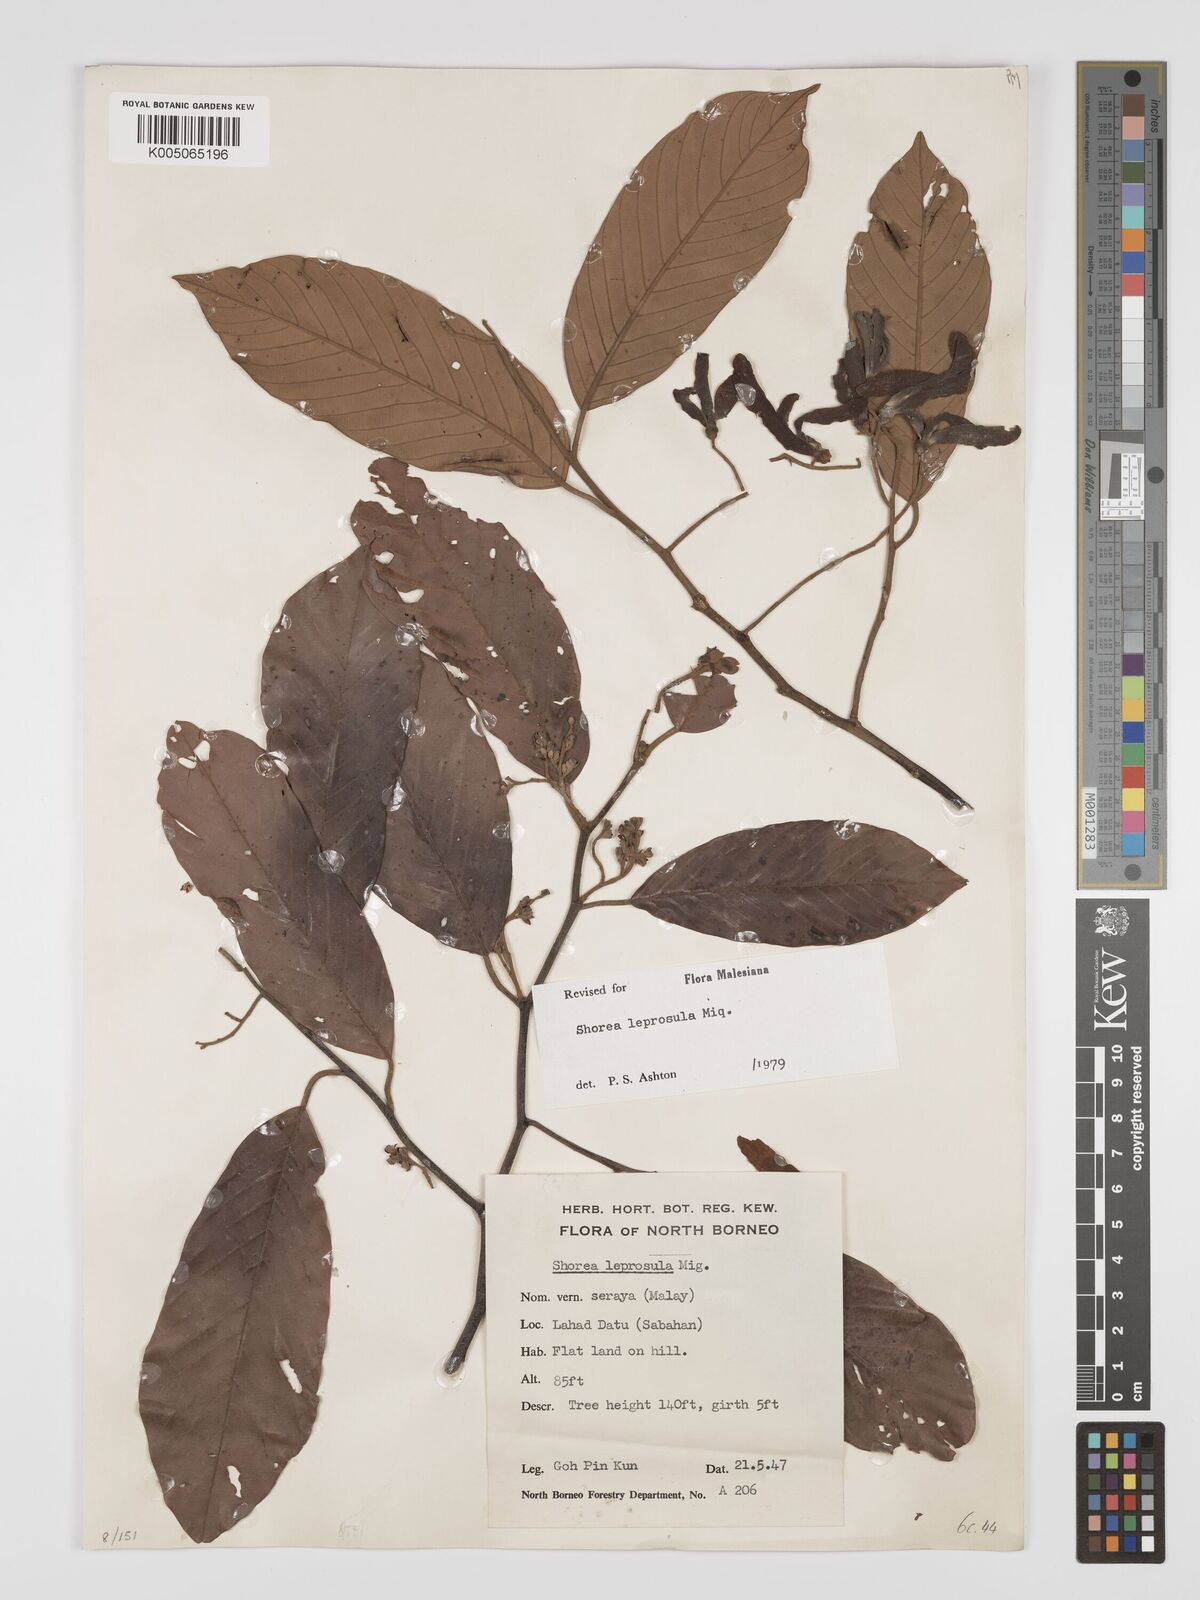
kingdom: Plantae
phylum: Tracheophyta
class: Magnoliopsida
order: Malvales
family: Dipterocarpaceae
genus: Shorea
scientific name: Shorea leprosula
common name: Light red meranti
